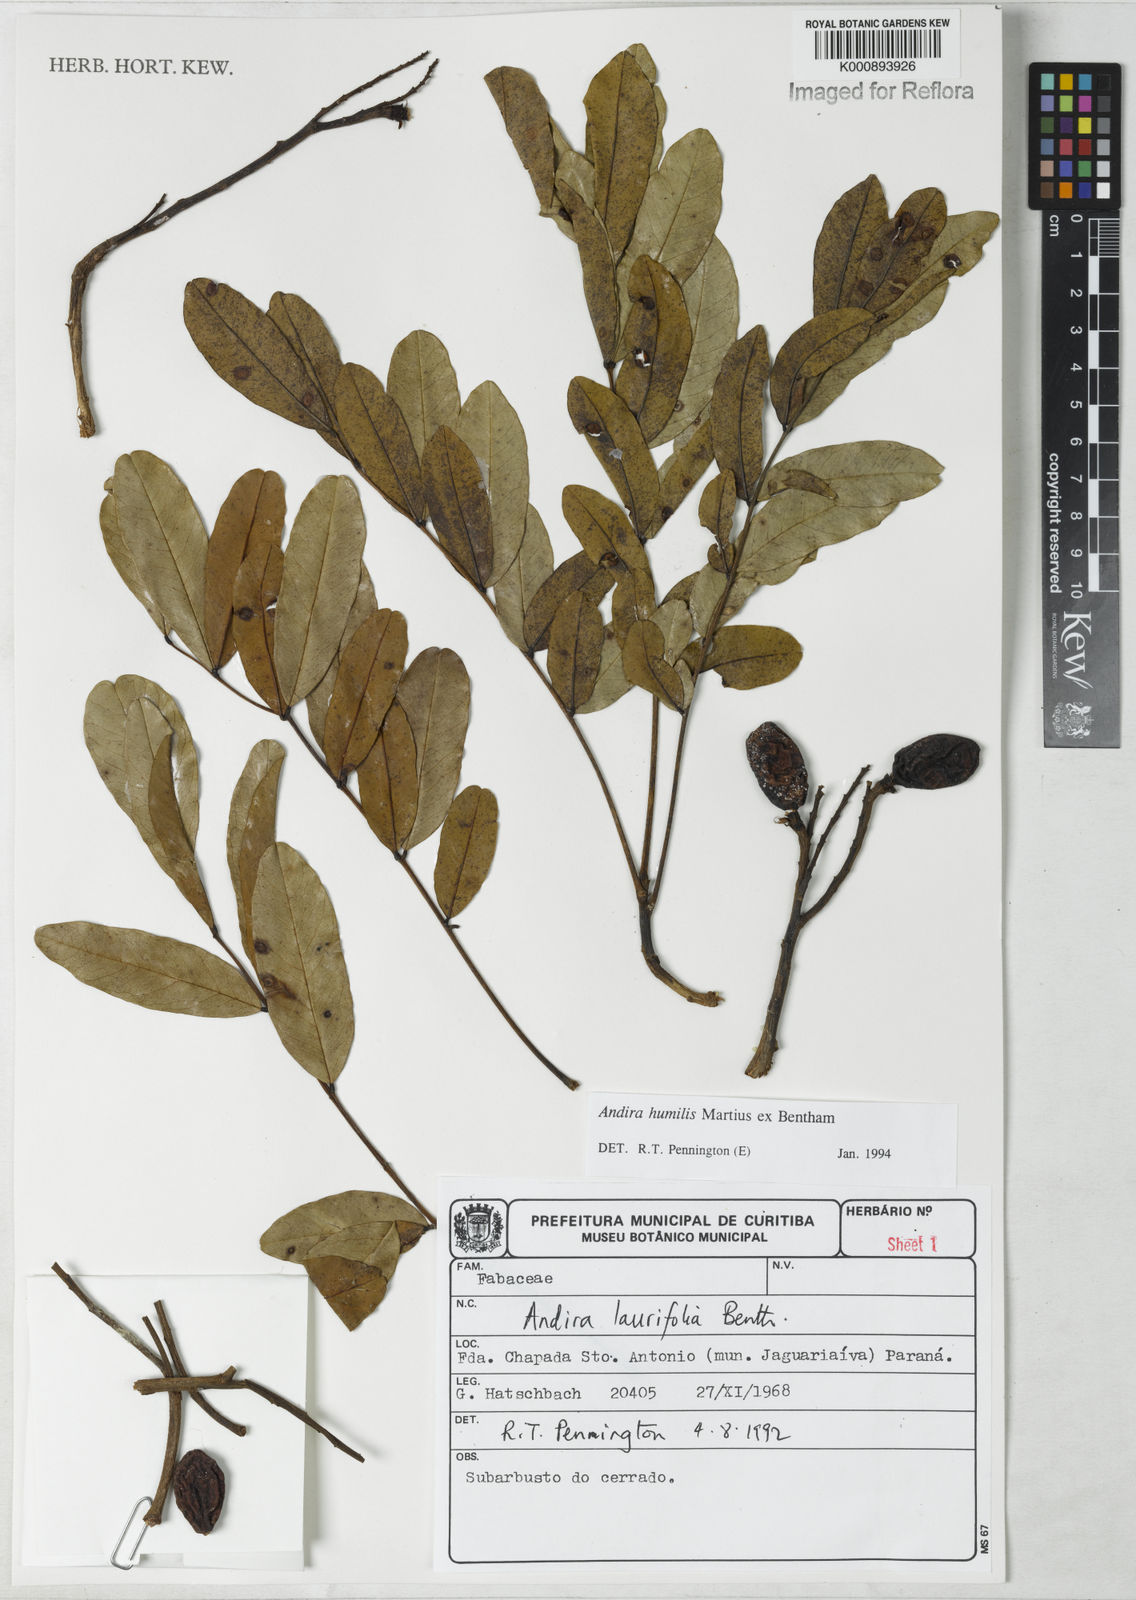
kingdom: Plantae
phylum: Tracheophyta
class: Magnoliopsida
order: Fabales
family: Fabaceae
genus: Andira
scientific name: Andira humilis
